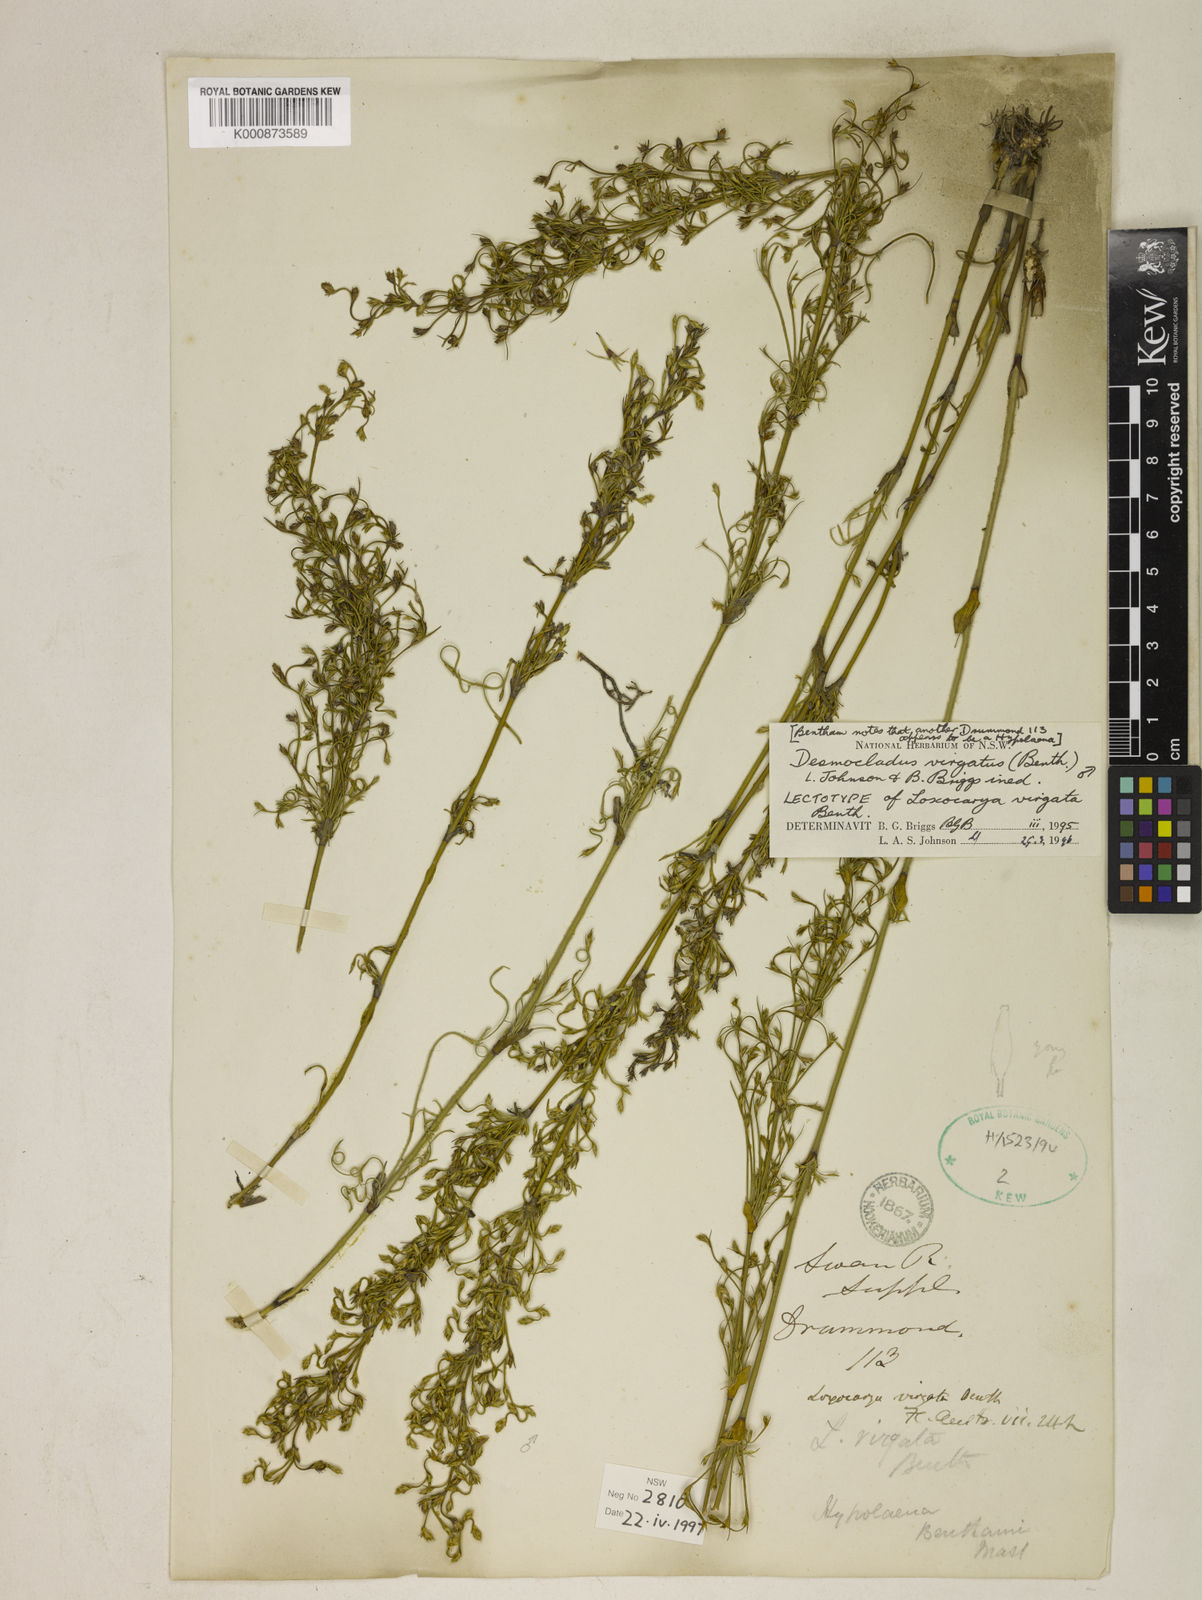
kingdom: Plantae
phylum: Tracheophyta
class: Liliopsida
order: Poales
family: Restionaceae
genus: Desmocladus
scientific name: Desmocladus virgatus
